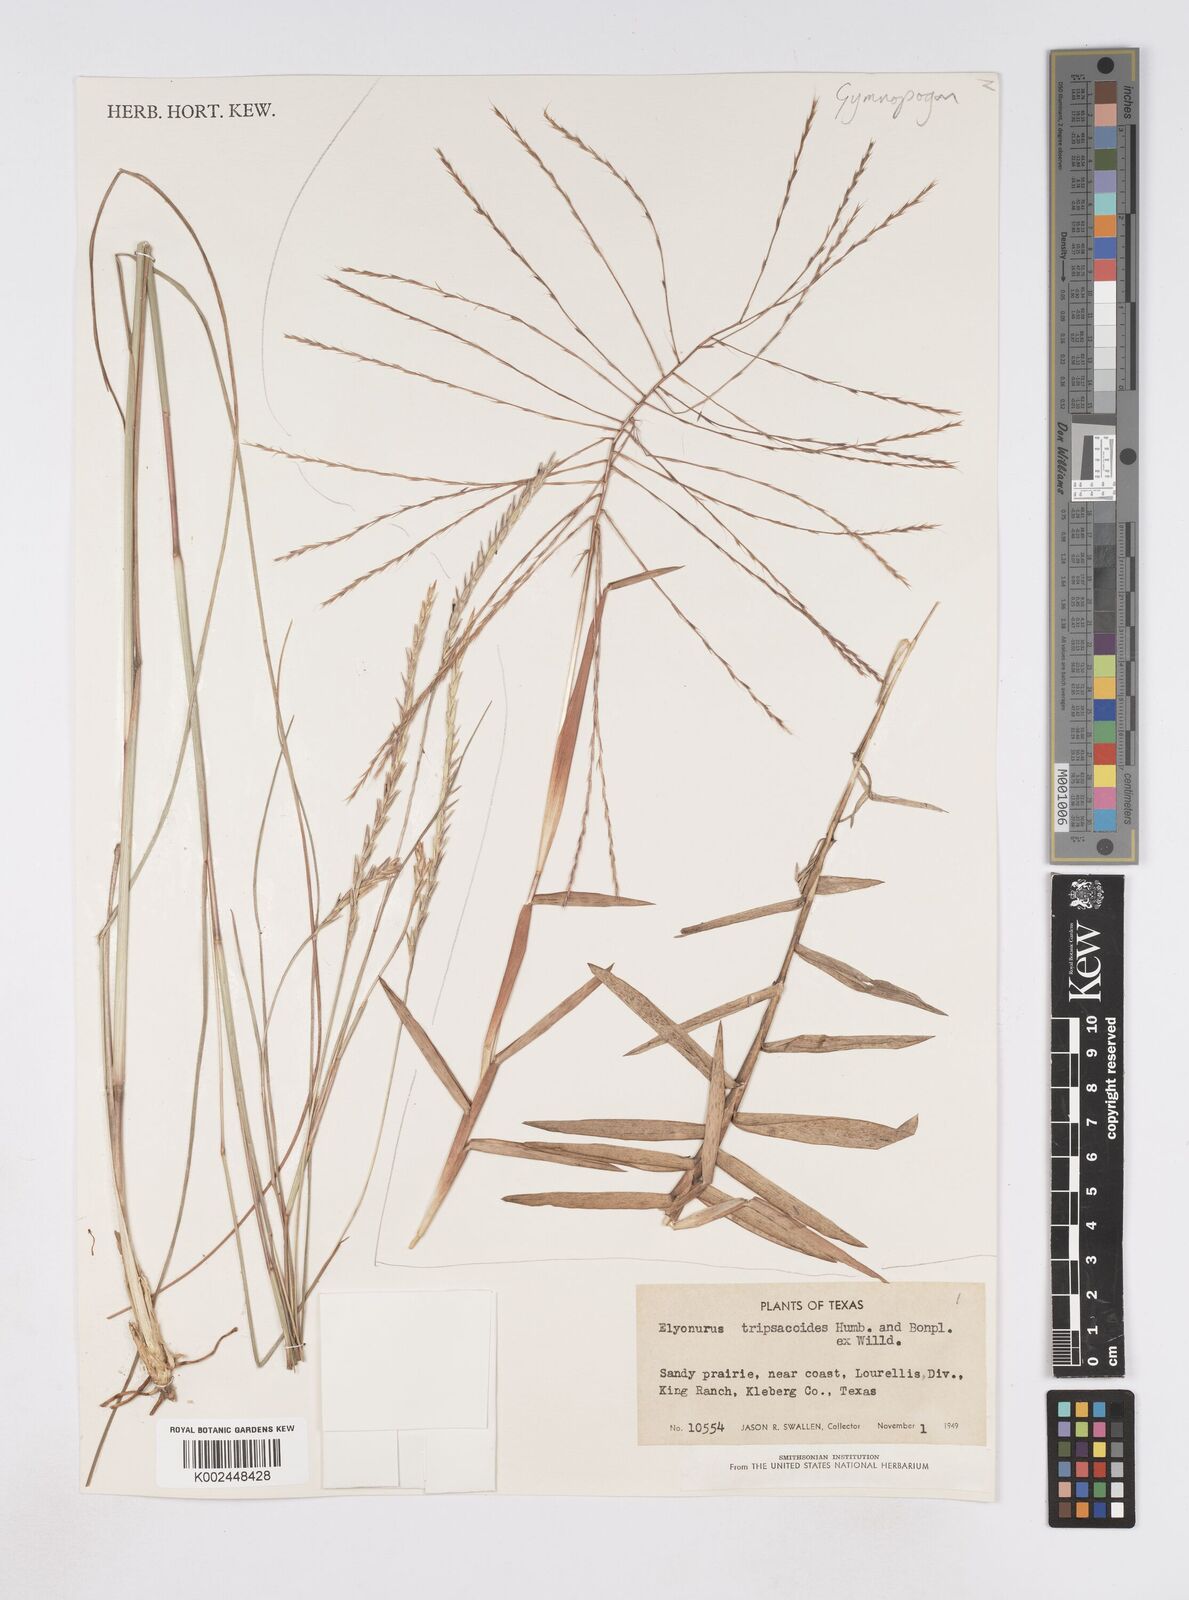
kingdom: Plantae
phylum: Tracheophyta
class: Liliopsida
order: Poales
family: Poaceae
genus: Elionurus
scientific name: Elionurus tripsacoides
